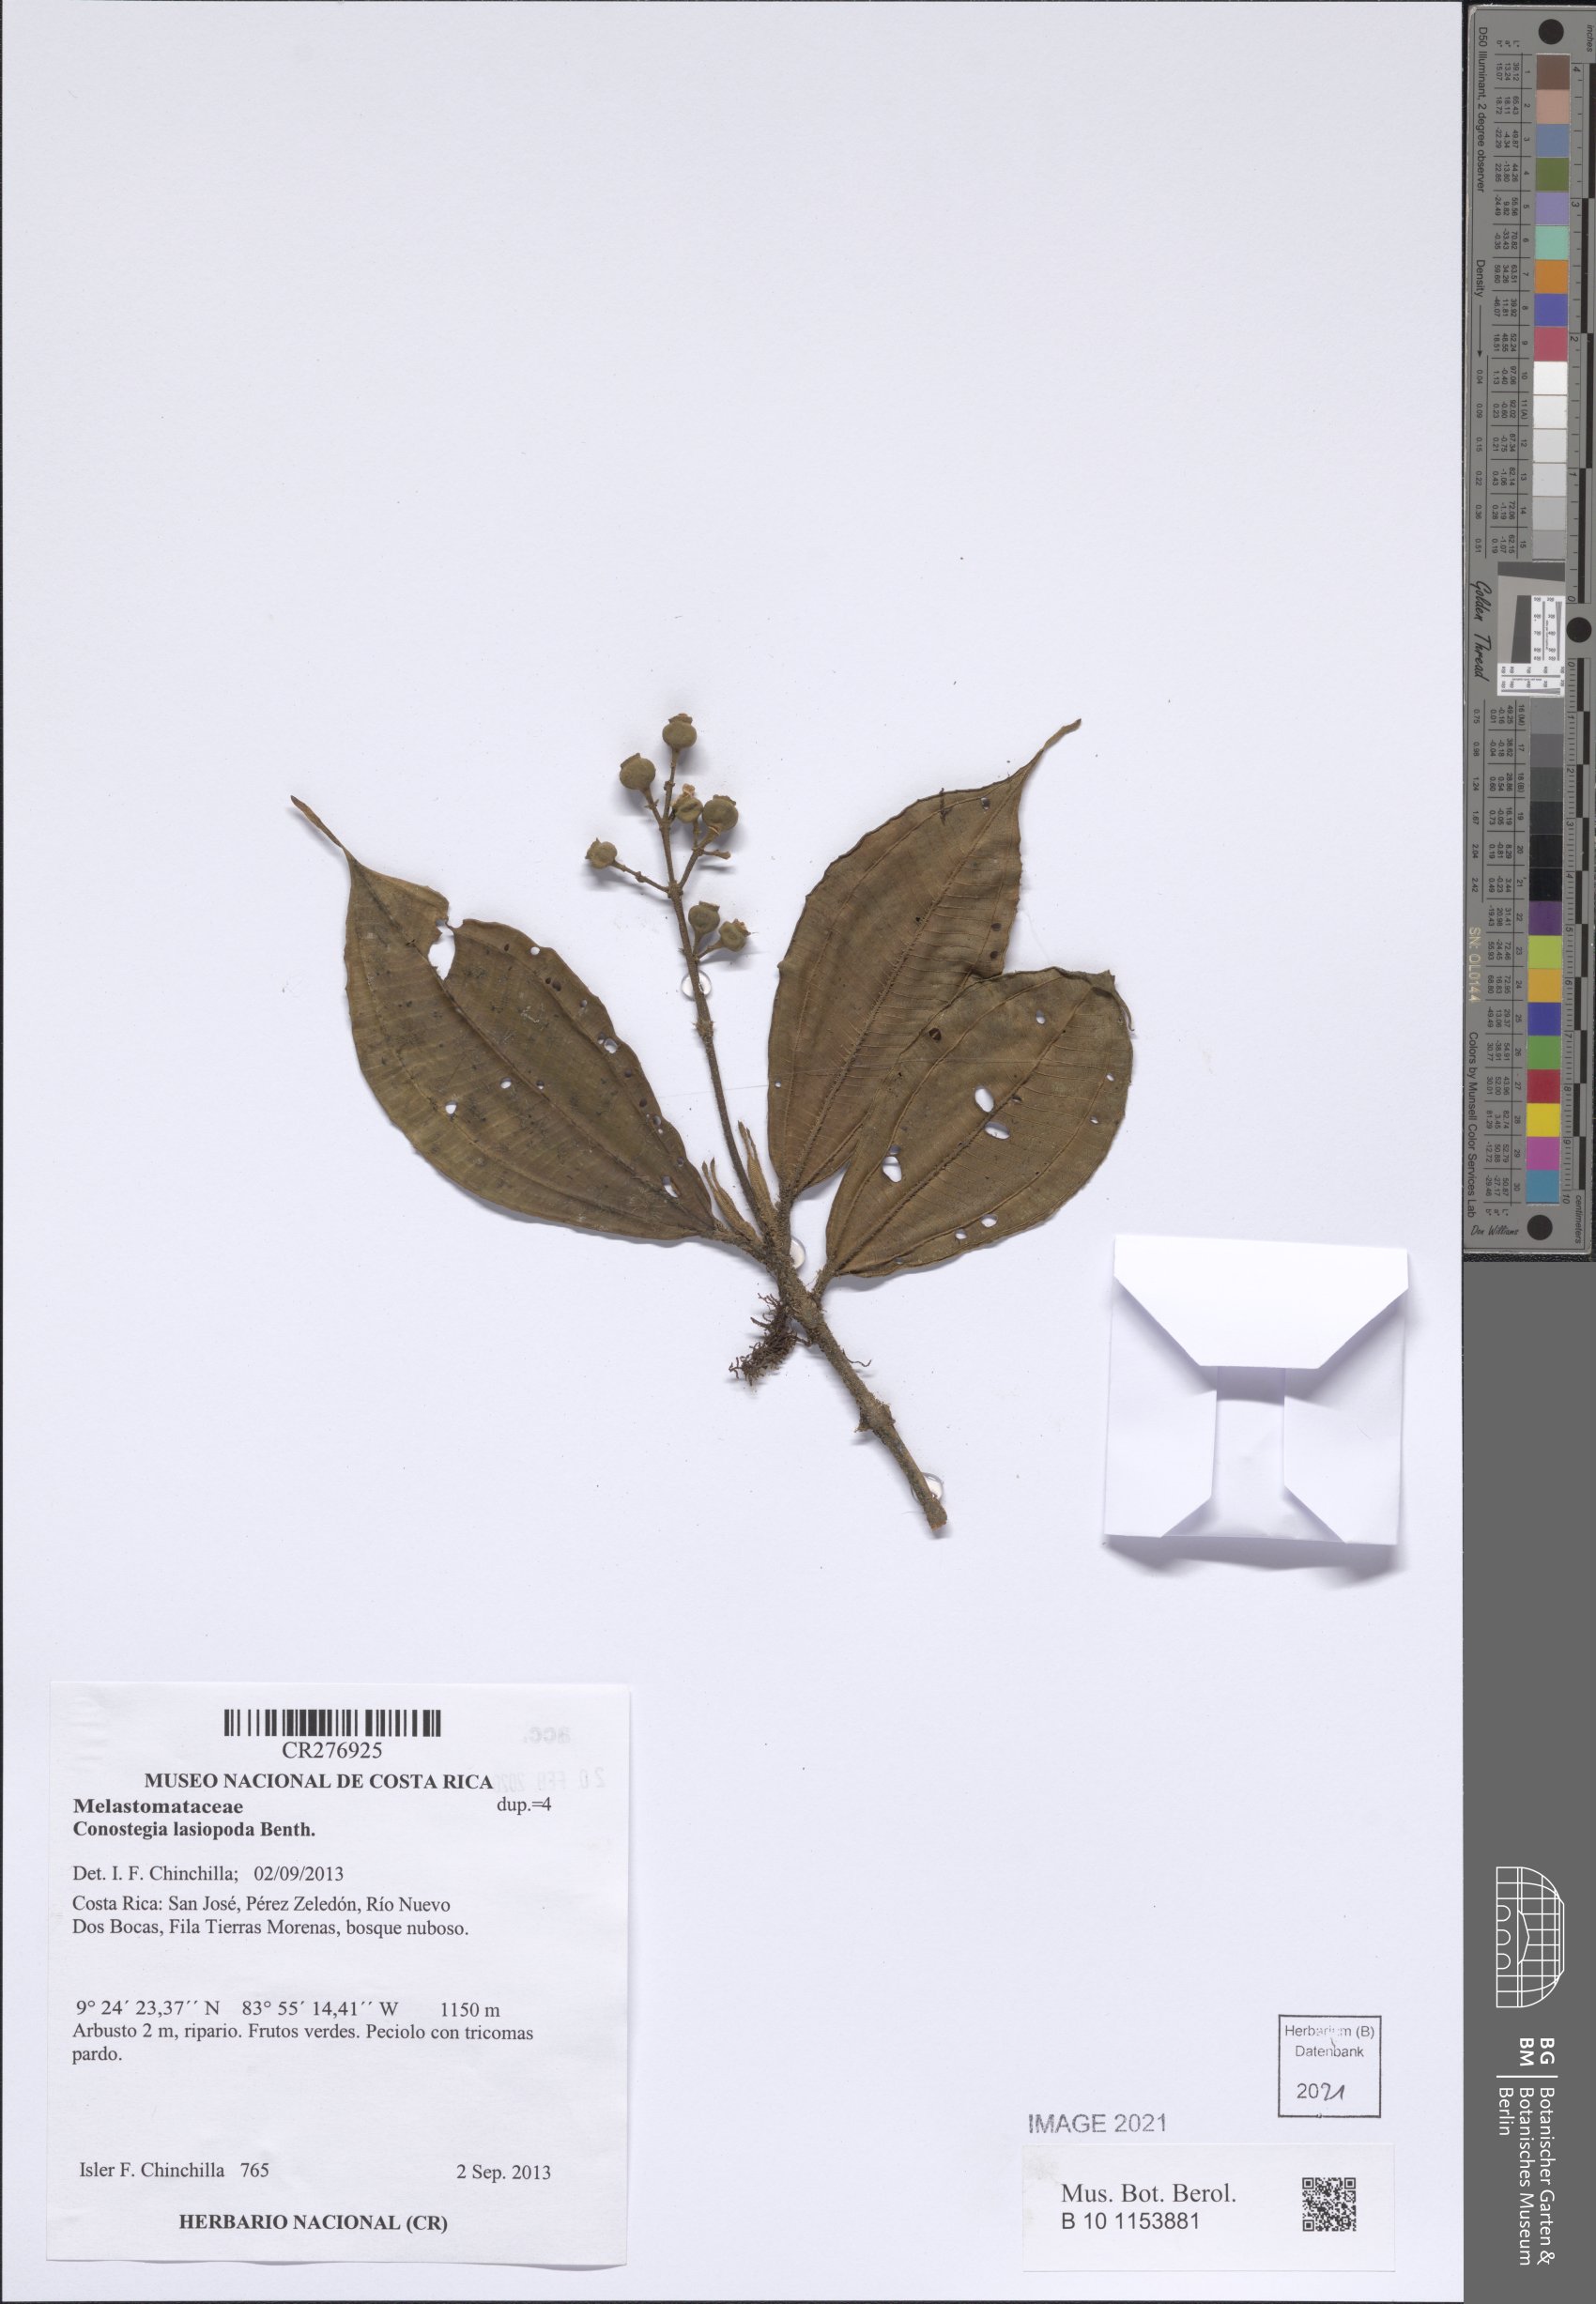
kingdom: Plantae
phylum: Tracheophyta
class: Magnoliopsida
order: Myrtales
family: Melastomataceae
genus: Miconia
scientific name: Miconia lasiopoda
